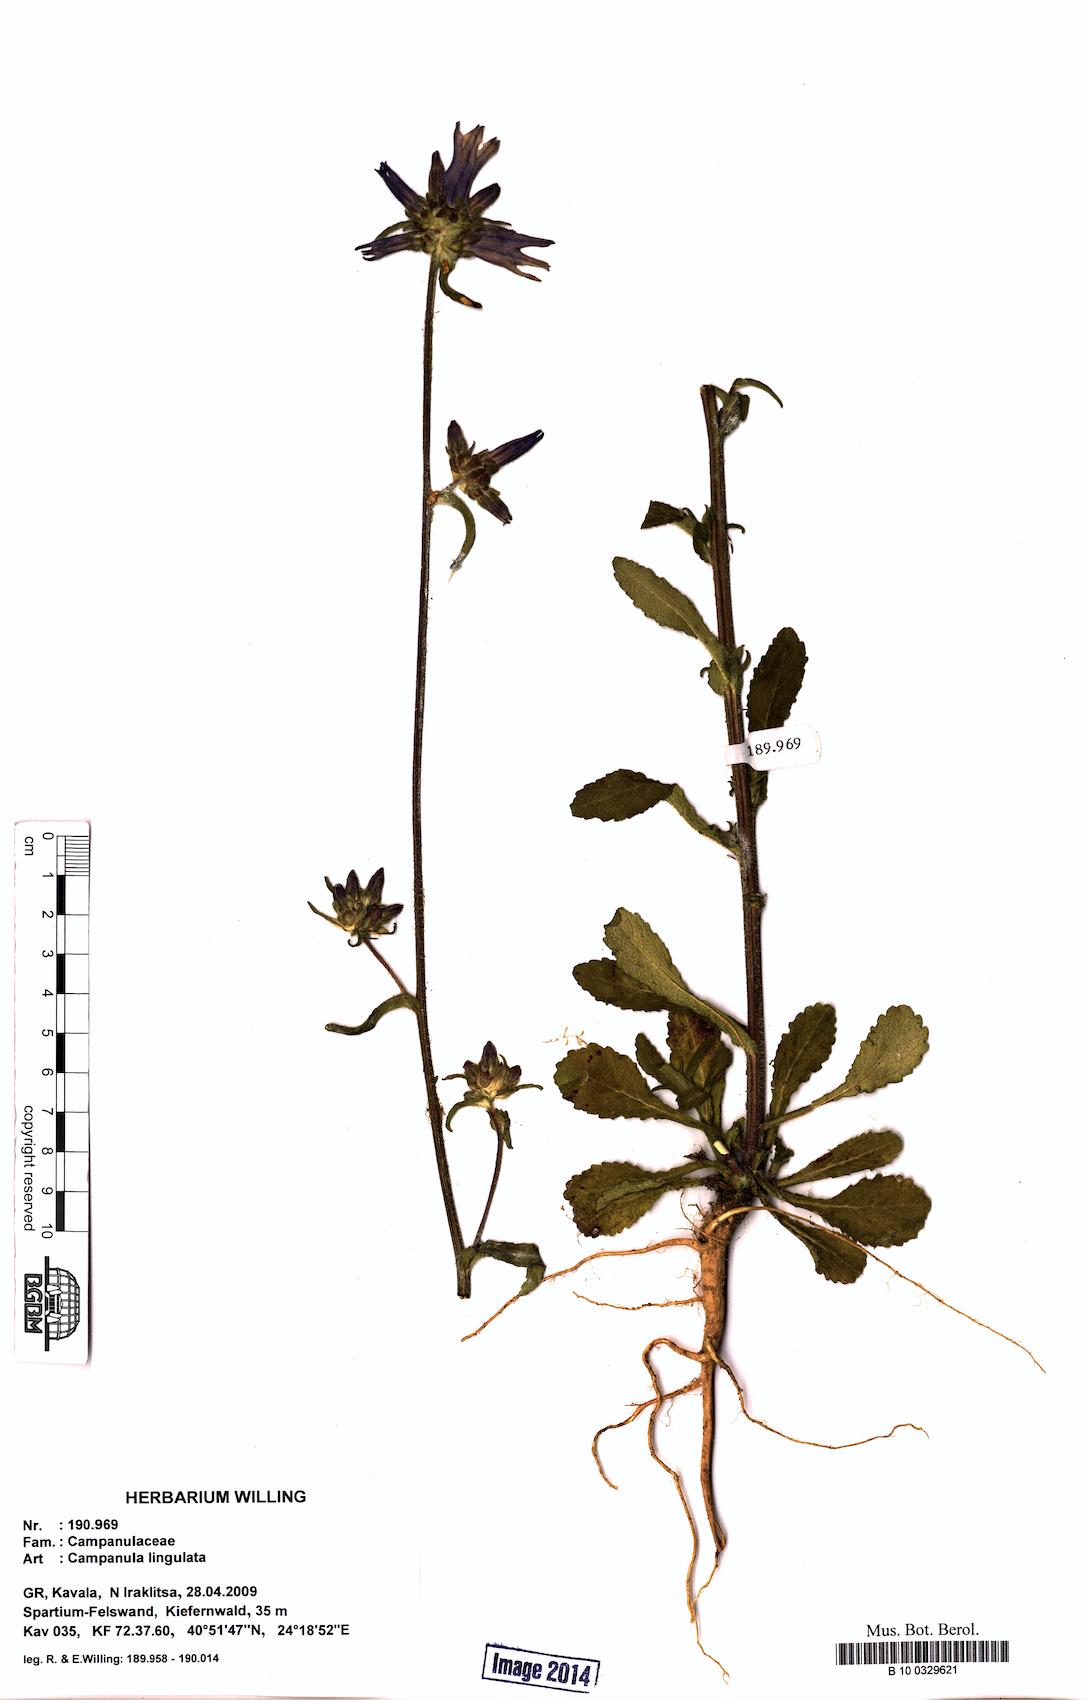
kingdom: Plantae
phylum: Tracheophyta
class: Magnoliopsida
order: Asterales
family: Campanulaceae
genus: Campanula
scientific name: Campanula lingulata
